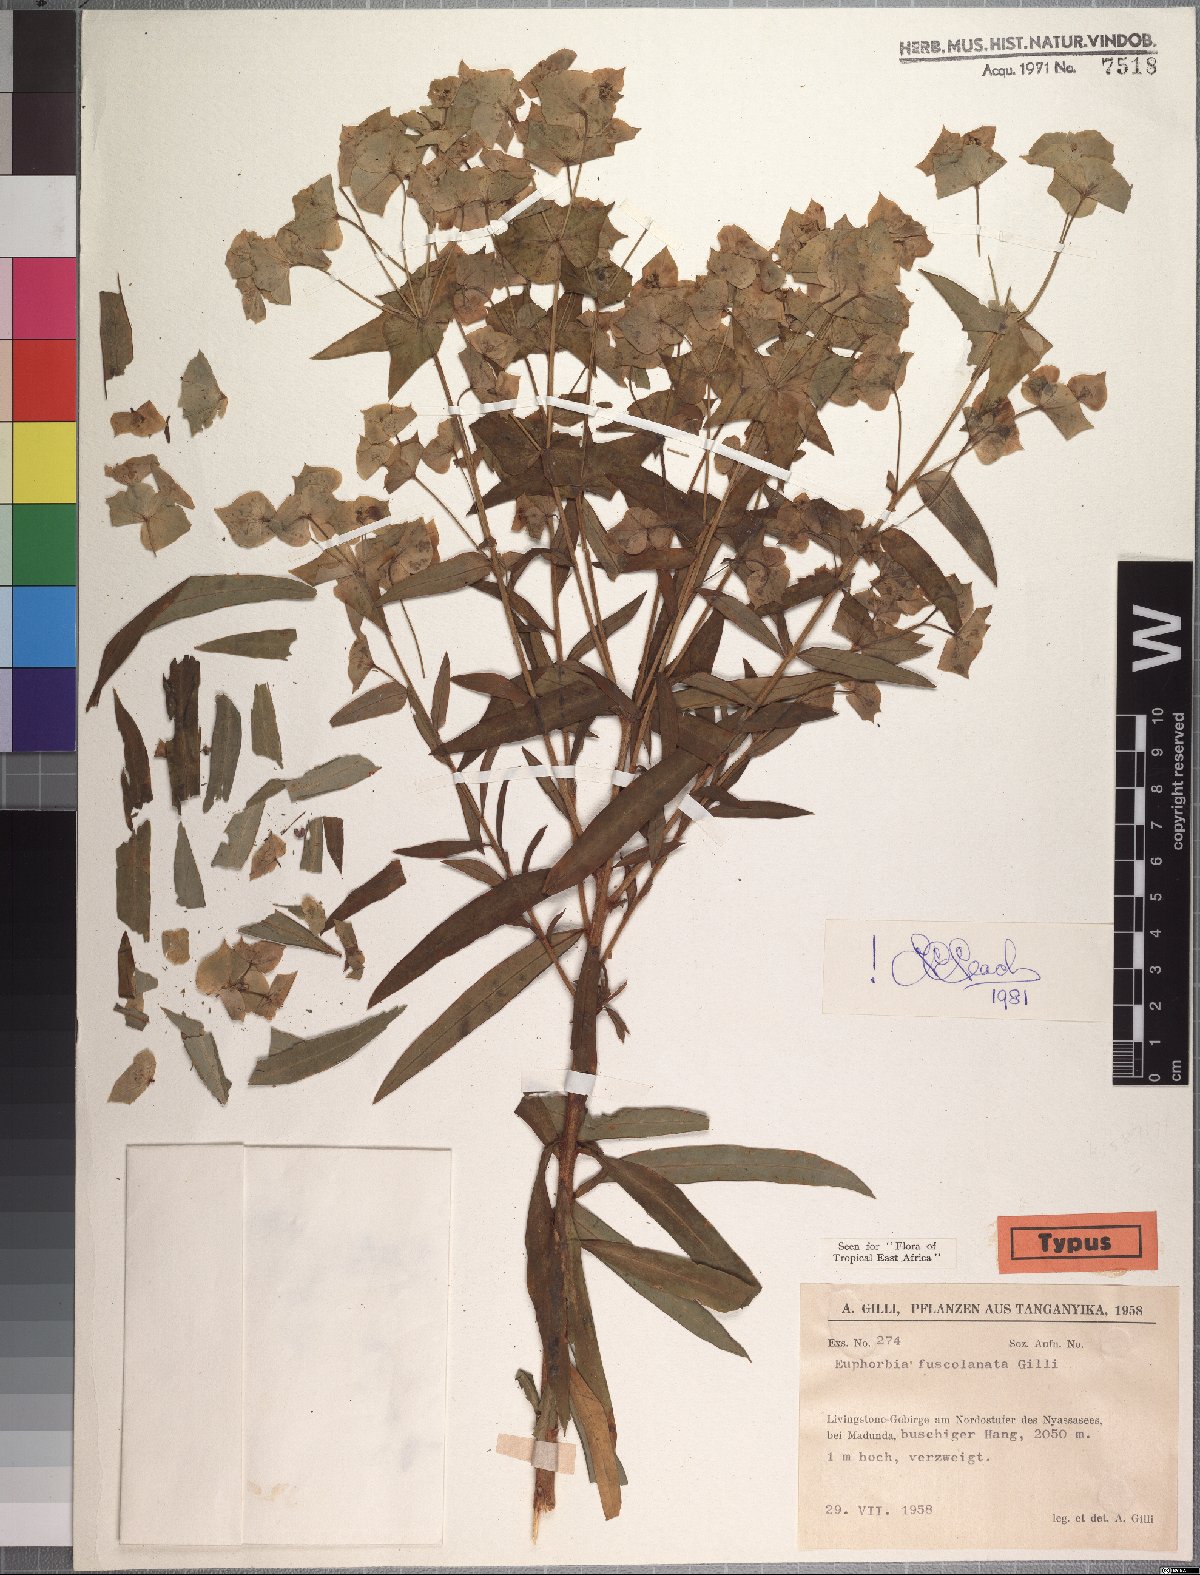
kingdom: Plantae
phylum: Tracheophyta
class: Magnoliopsida
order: Malpighiales
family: Euphorbiaceae
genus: Euphorbia
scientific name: Euphorbia fuscolanata
